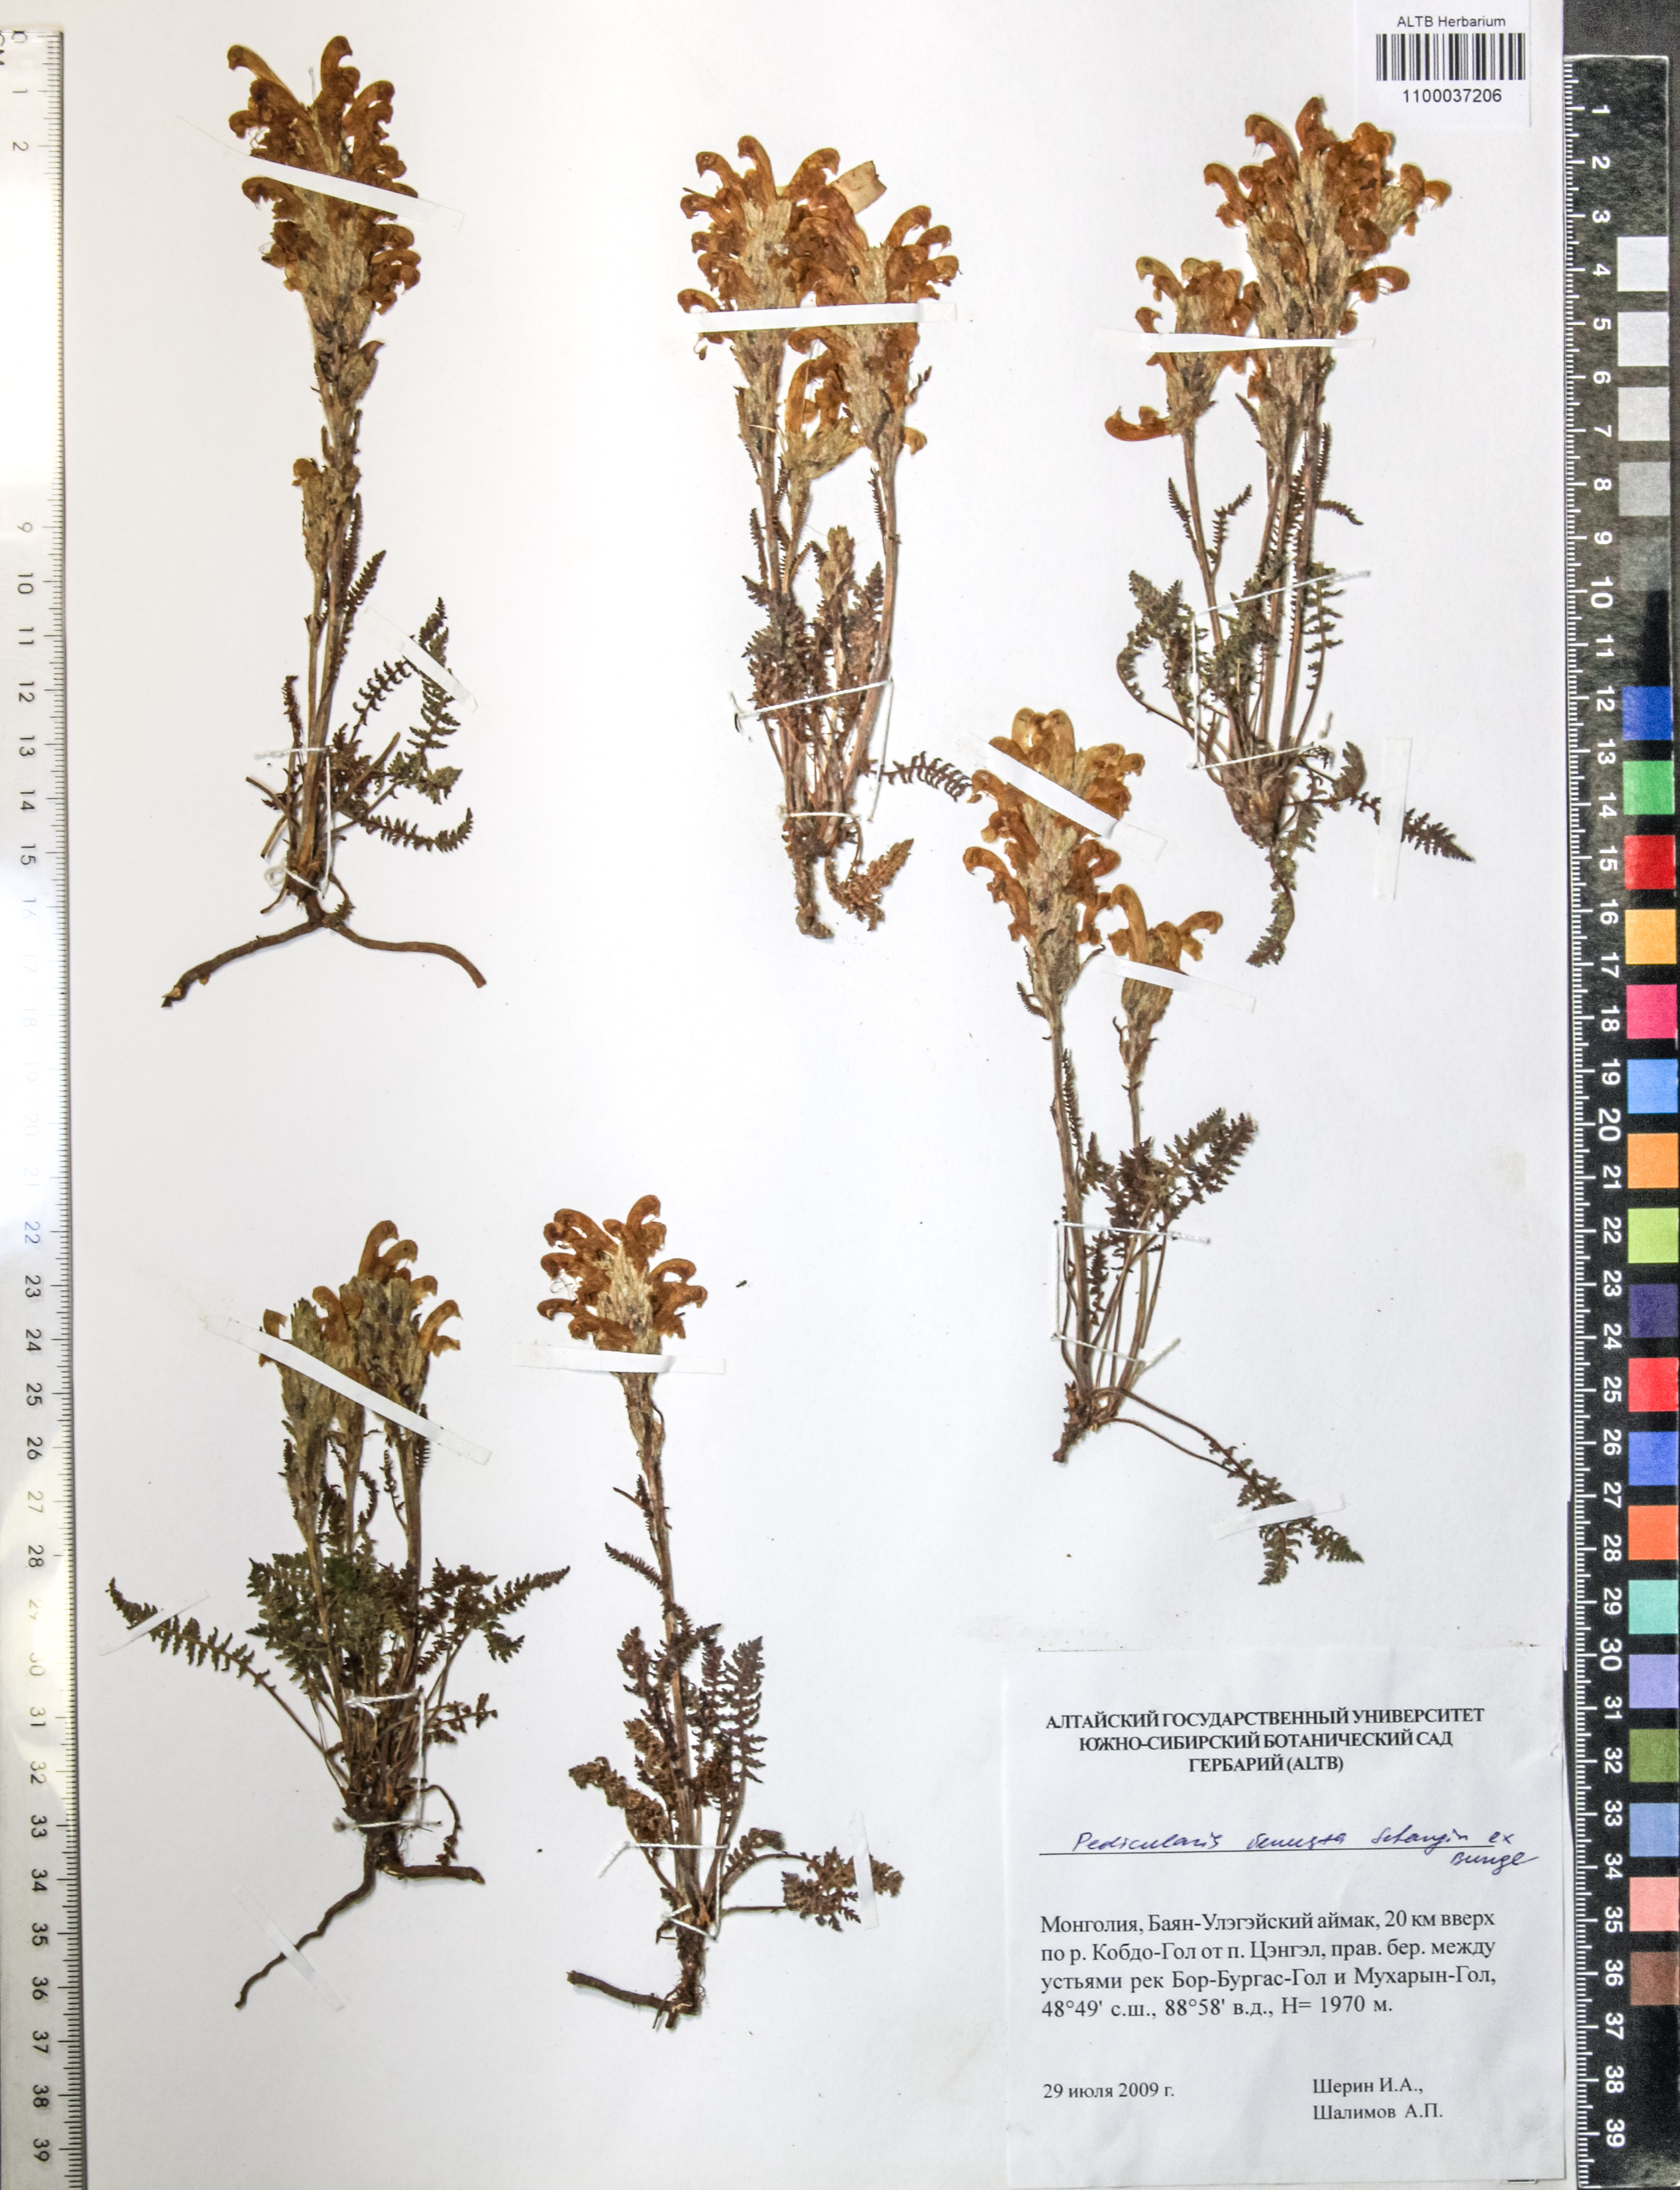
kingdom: Plantae
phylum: Tracheophyta
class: Magnoliopsida
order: Lamiales
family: Orobanchaceae
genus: Pedicularis
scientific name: Pedicularis venusta
